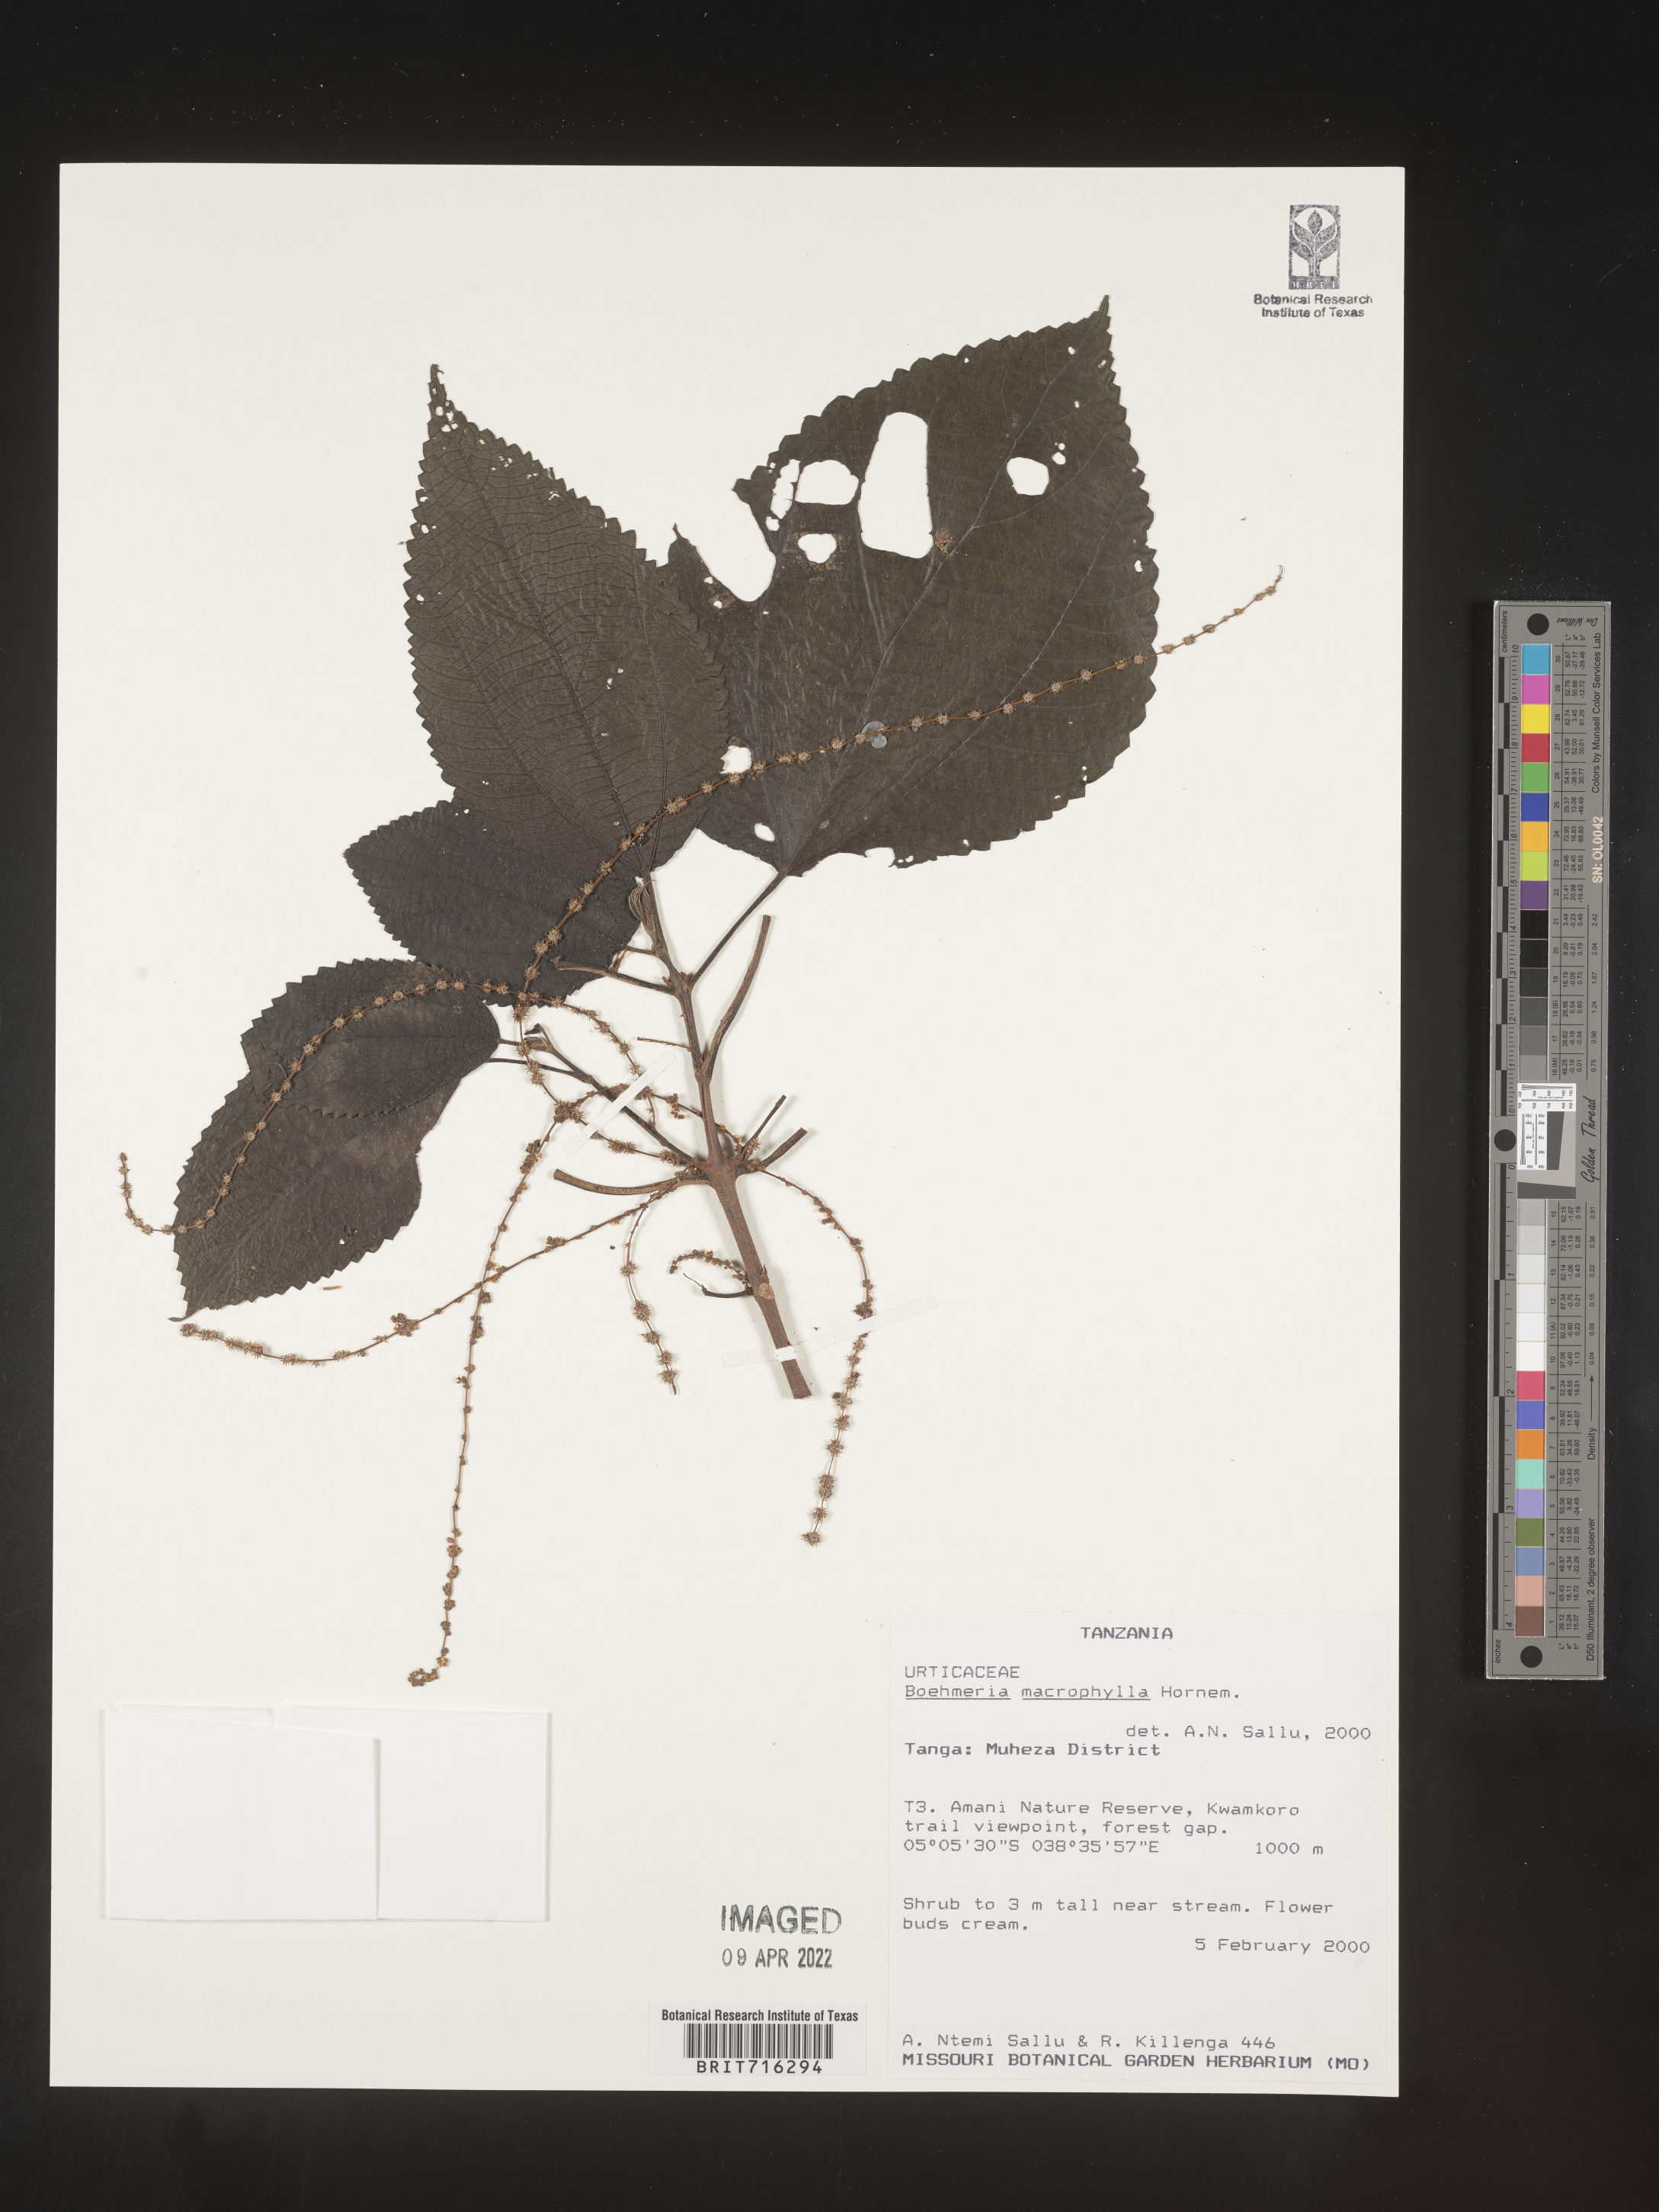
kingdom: Plantae
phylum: Tracheophyta
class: Magnoliopsida
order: Rosales
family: Urticaceae
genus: Boehmeria
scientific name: Boehmeria
